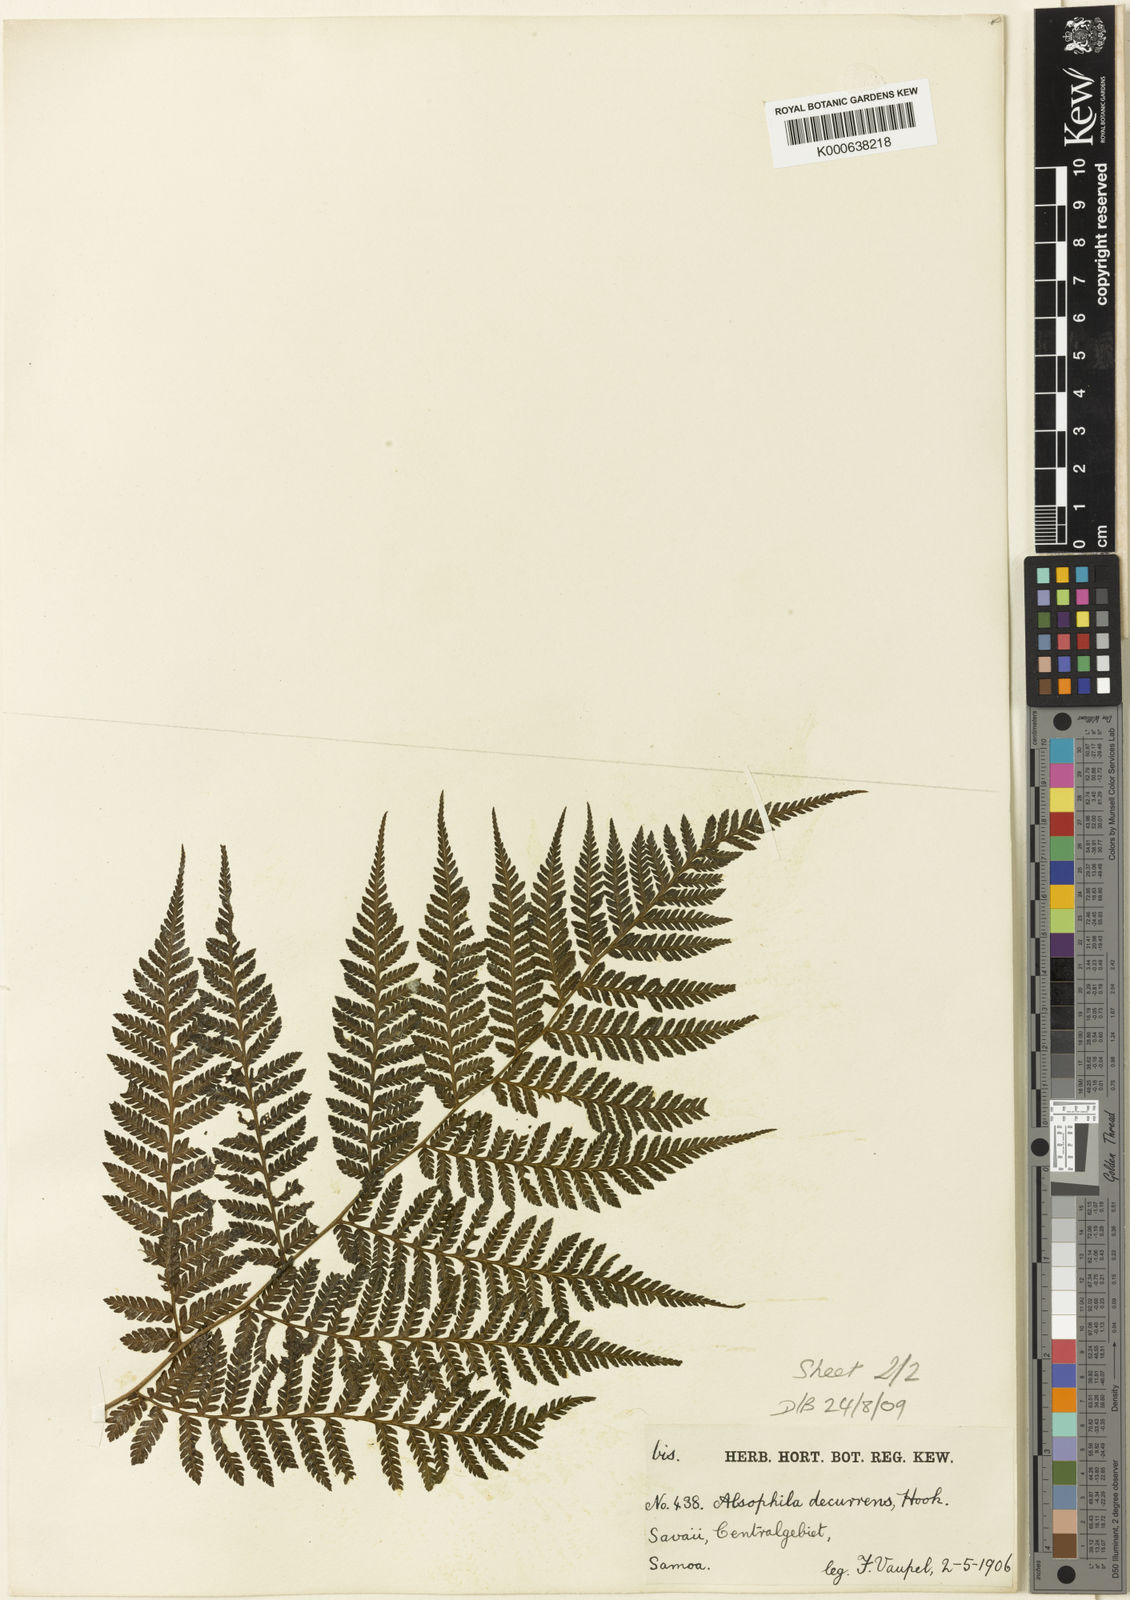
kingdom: Plantae
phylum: Tracheophyta
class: Polypodiopsida
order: Cyatheales
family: Cyatheaceae
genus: Cyathea
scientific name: Cyathea decurrens
